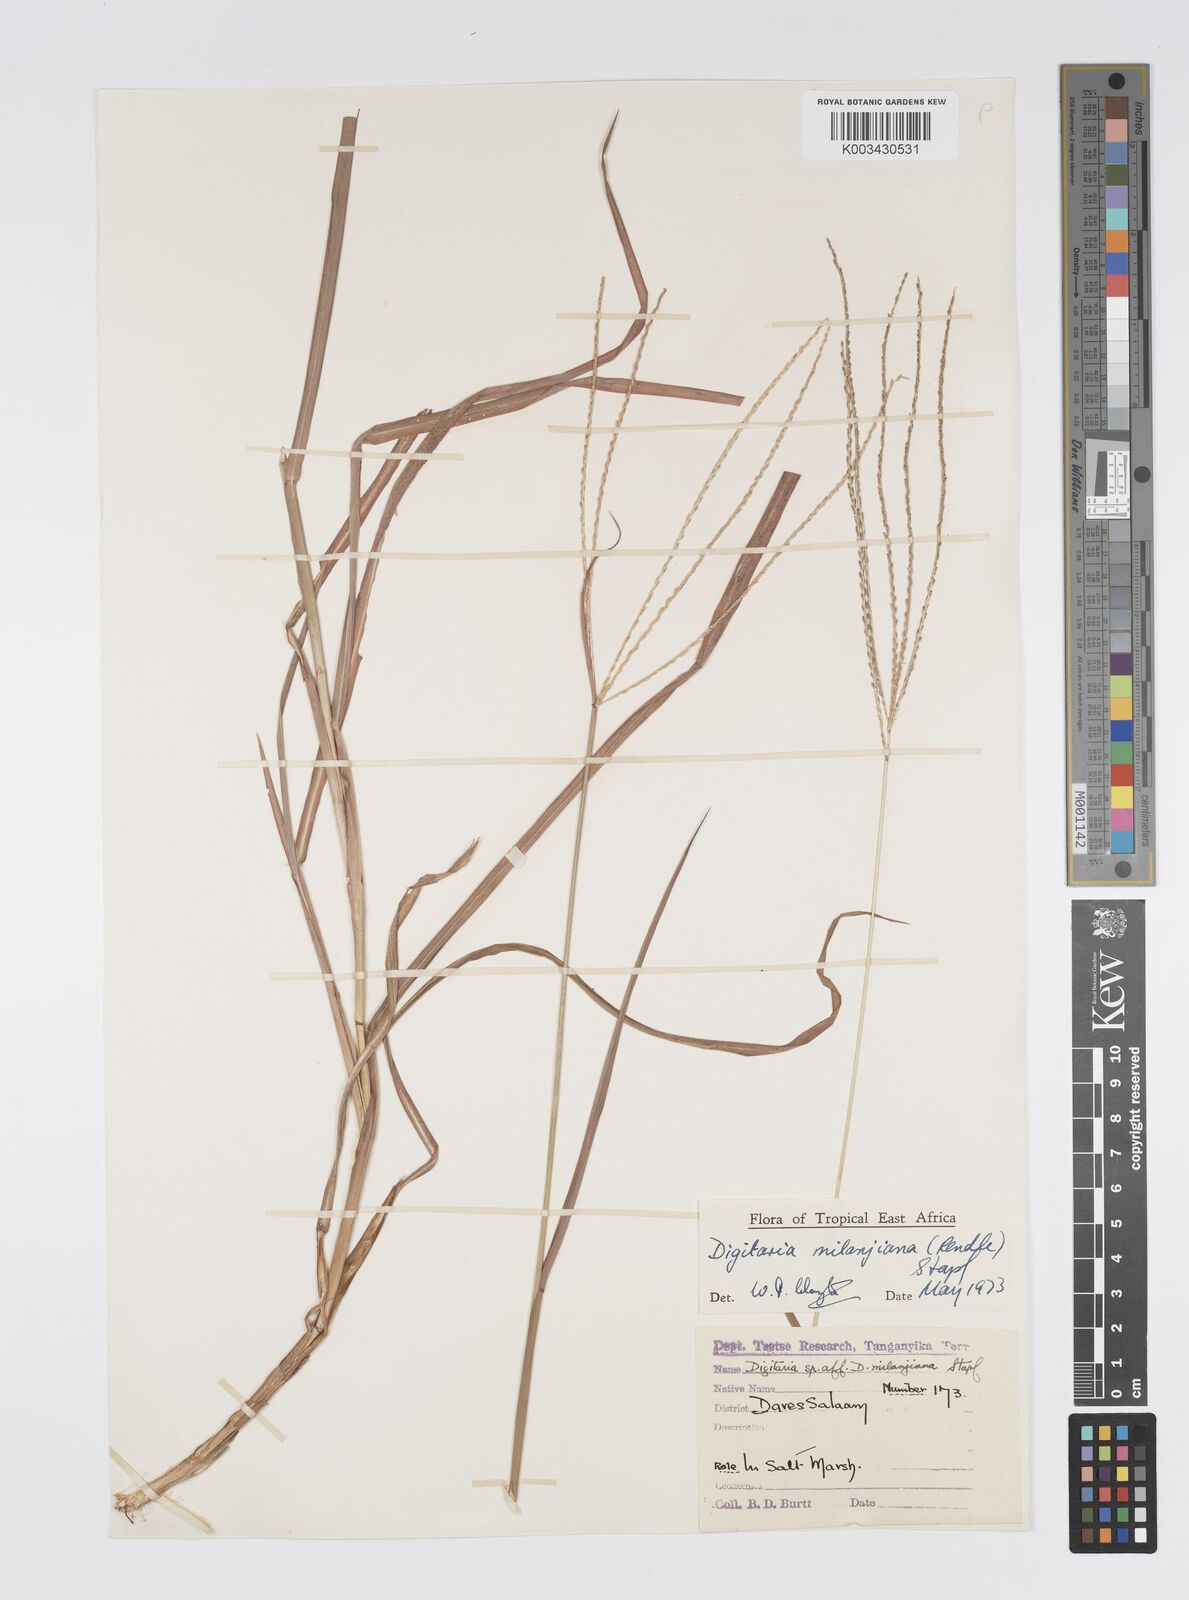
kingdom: Plantae
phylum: Tracheophyta
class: Liliopsida
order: Poales
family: Poaceae
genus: Digitaria
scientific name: Digitaria milanjiana
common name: Madagascar crabgrass
